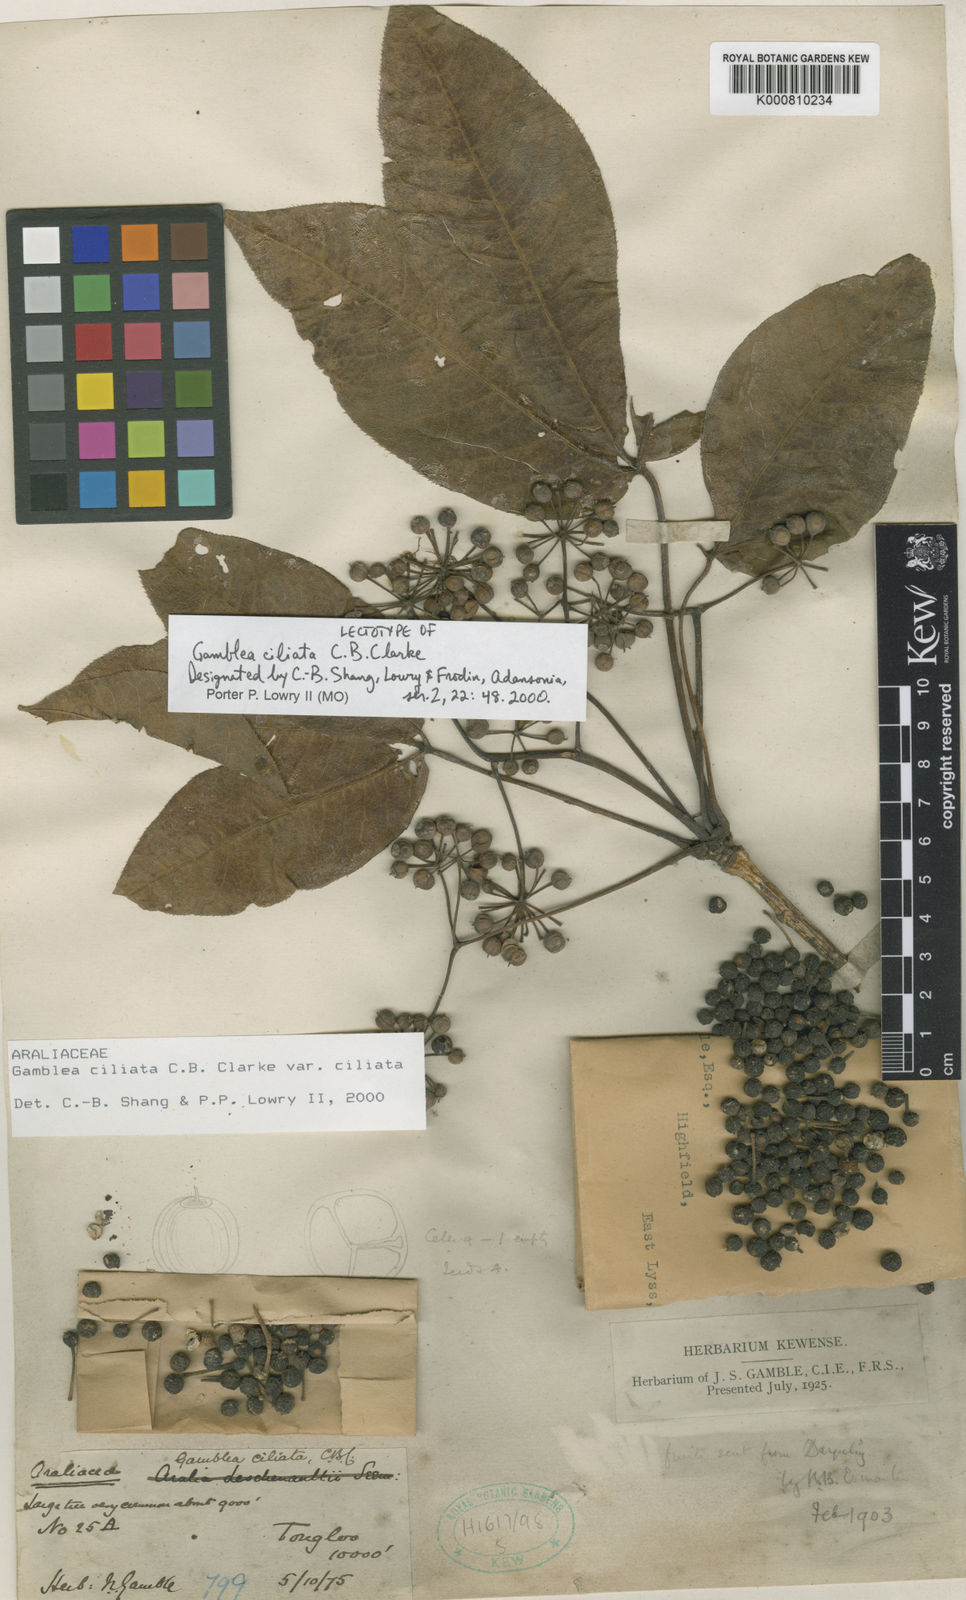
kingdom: Plantae
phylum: Tracheophyta
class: Magnoliopsida
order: Apiales
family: Araliaceae
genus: Gamblea
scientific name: Gamblea ciliata
